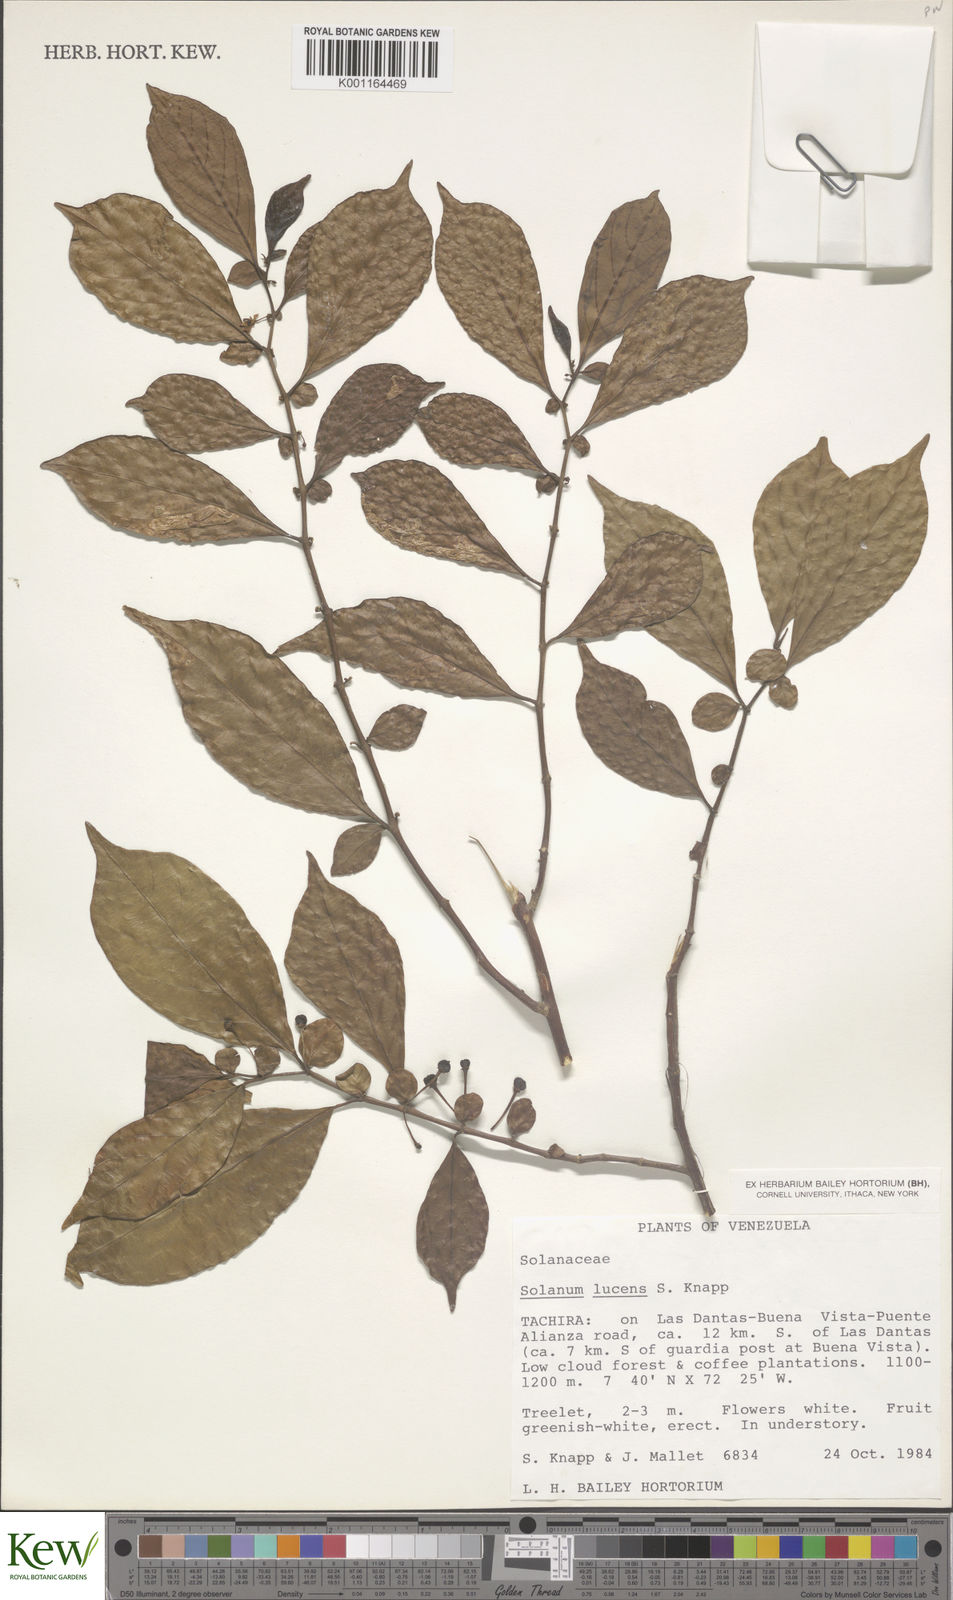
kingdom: Plantae
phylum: Tracheophyta
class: Magnoliopsida
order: Solanales
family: Solanaceae
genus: Solanum
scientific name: Solanum lucens
